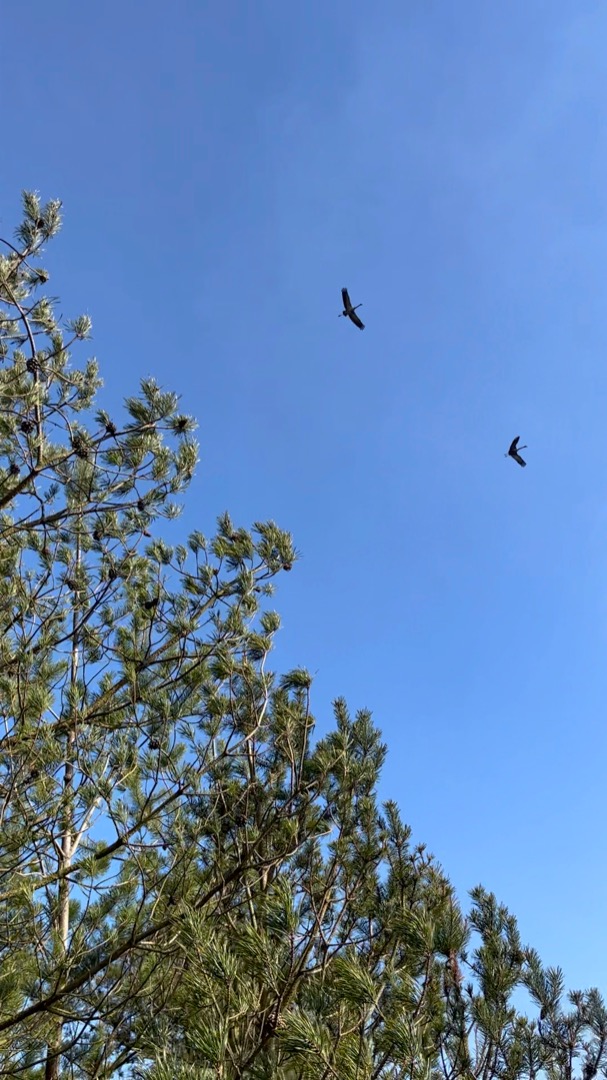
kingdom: Animalia
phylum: Chordata
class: Aves
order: Gruiformes
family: Gruidae
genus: Grus
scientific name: Grus grus
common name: Trane
